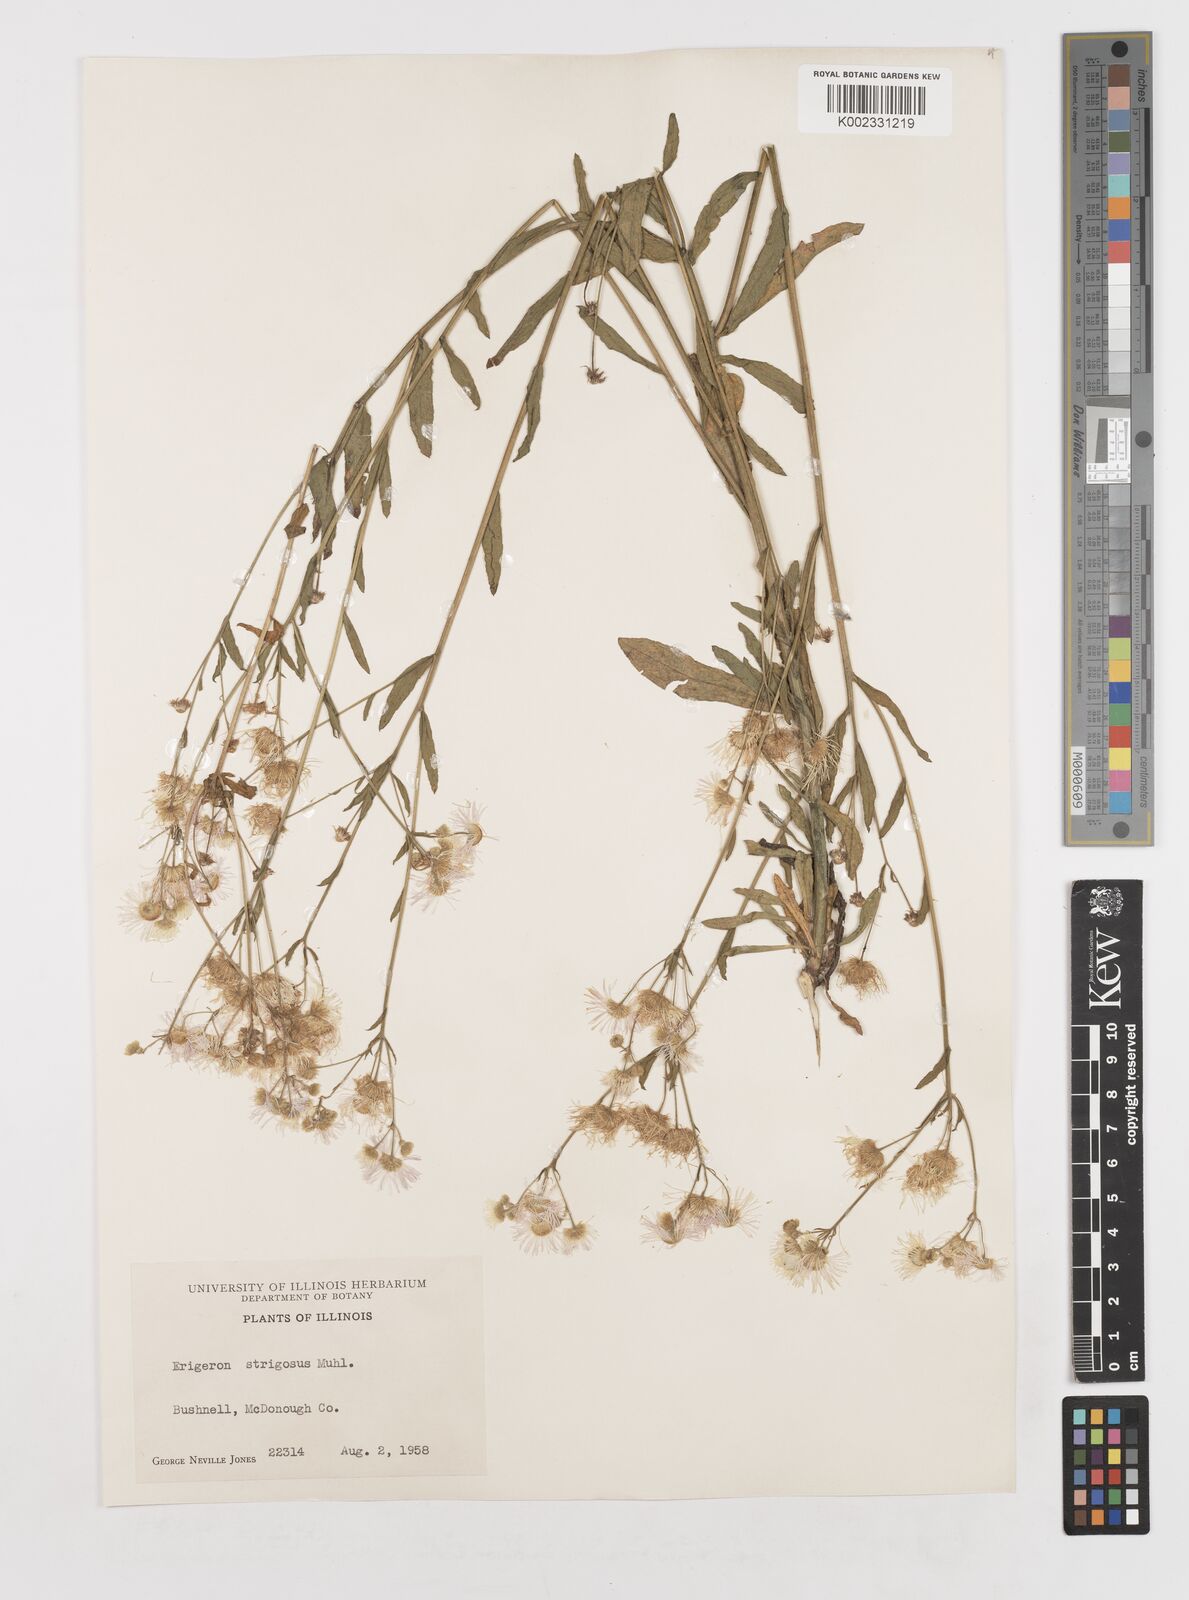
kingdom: Plantae
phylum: Tracheophyta
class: Magnoliopsida
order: Asterales
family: Asteraceae
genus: Erigeron
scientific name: Erigeron strigosus
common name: Common eastern fleabane
